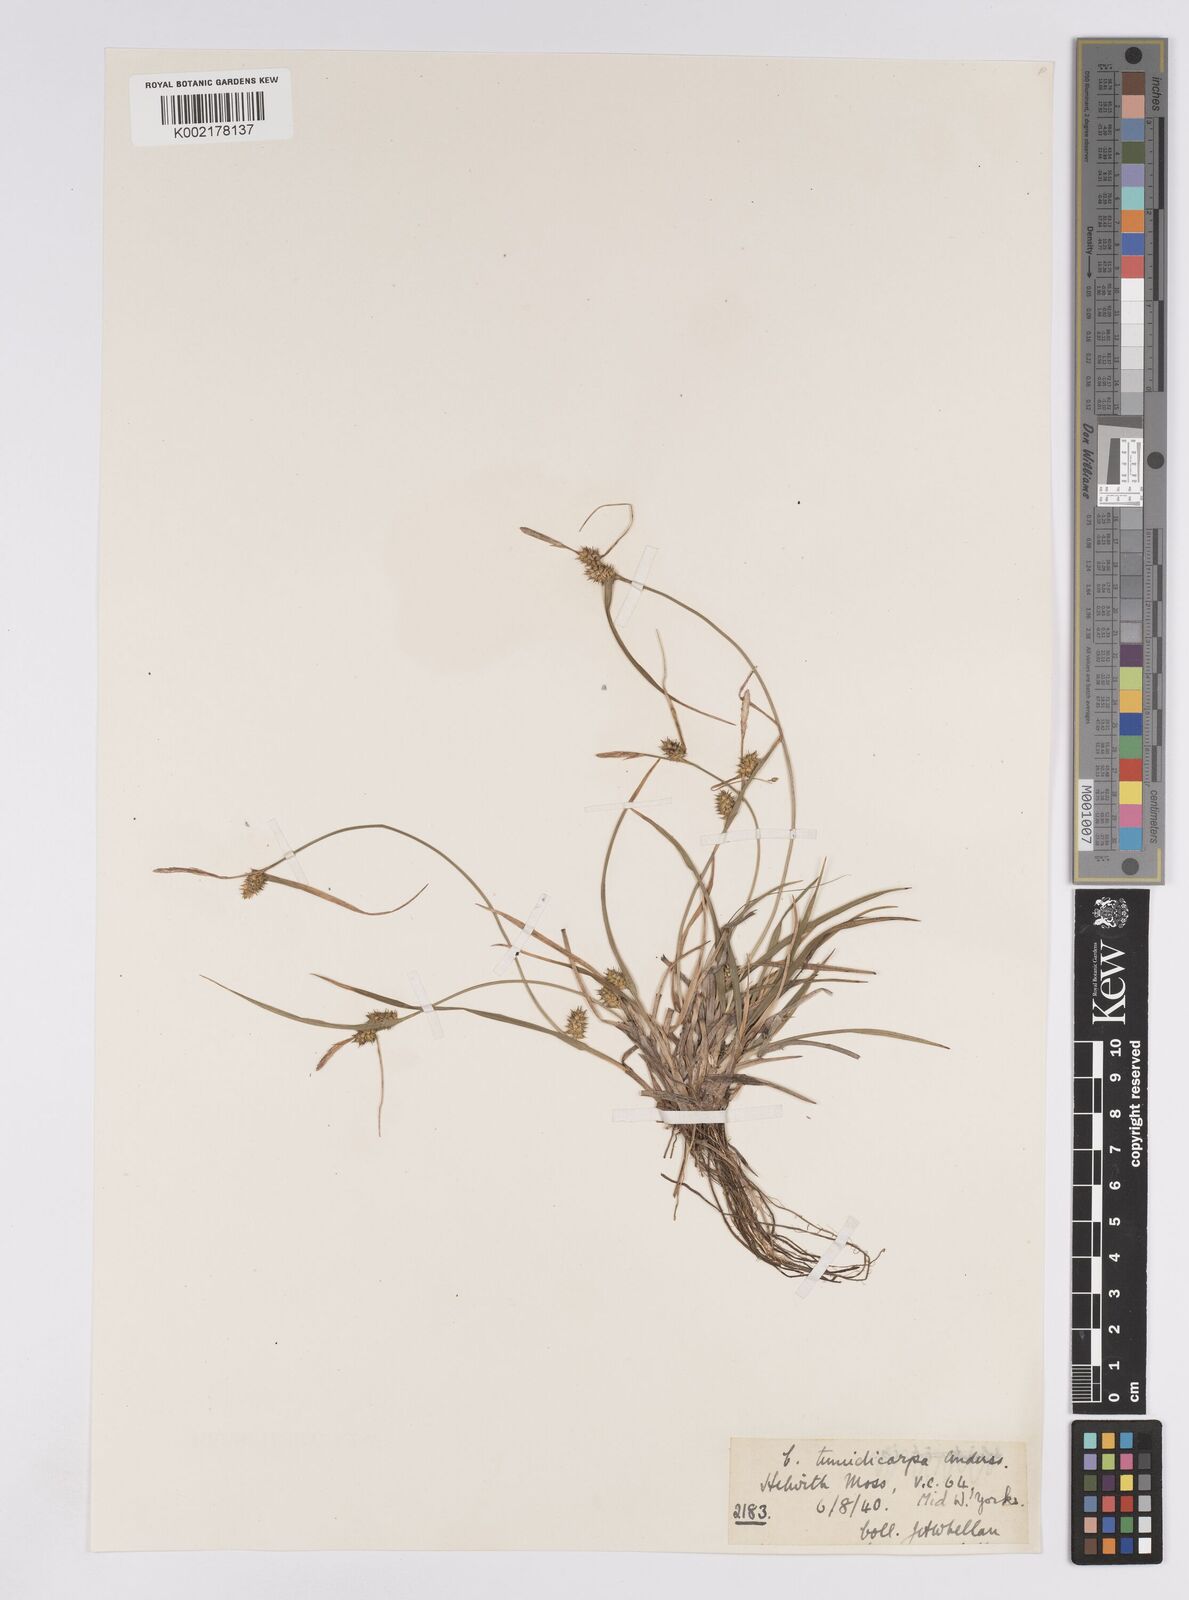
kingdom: Plantae
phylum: Tracheophyta
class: Liliopsida
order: Poales
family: Cyperaceae
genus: Carex
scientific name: Carex demissa
